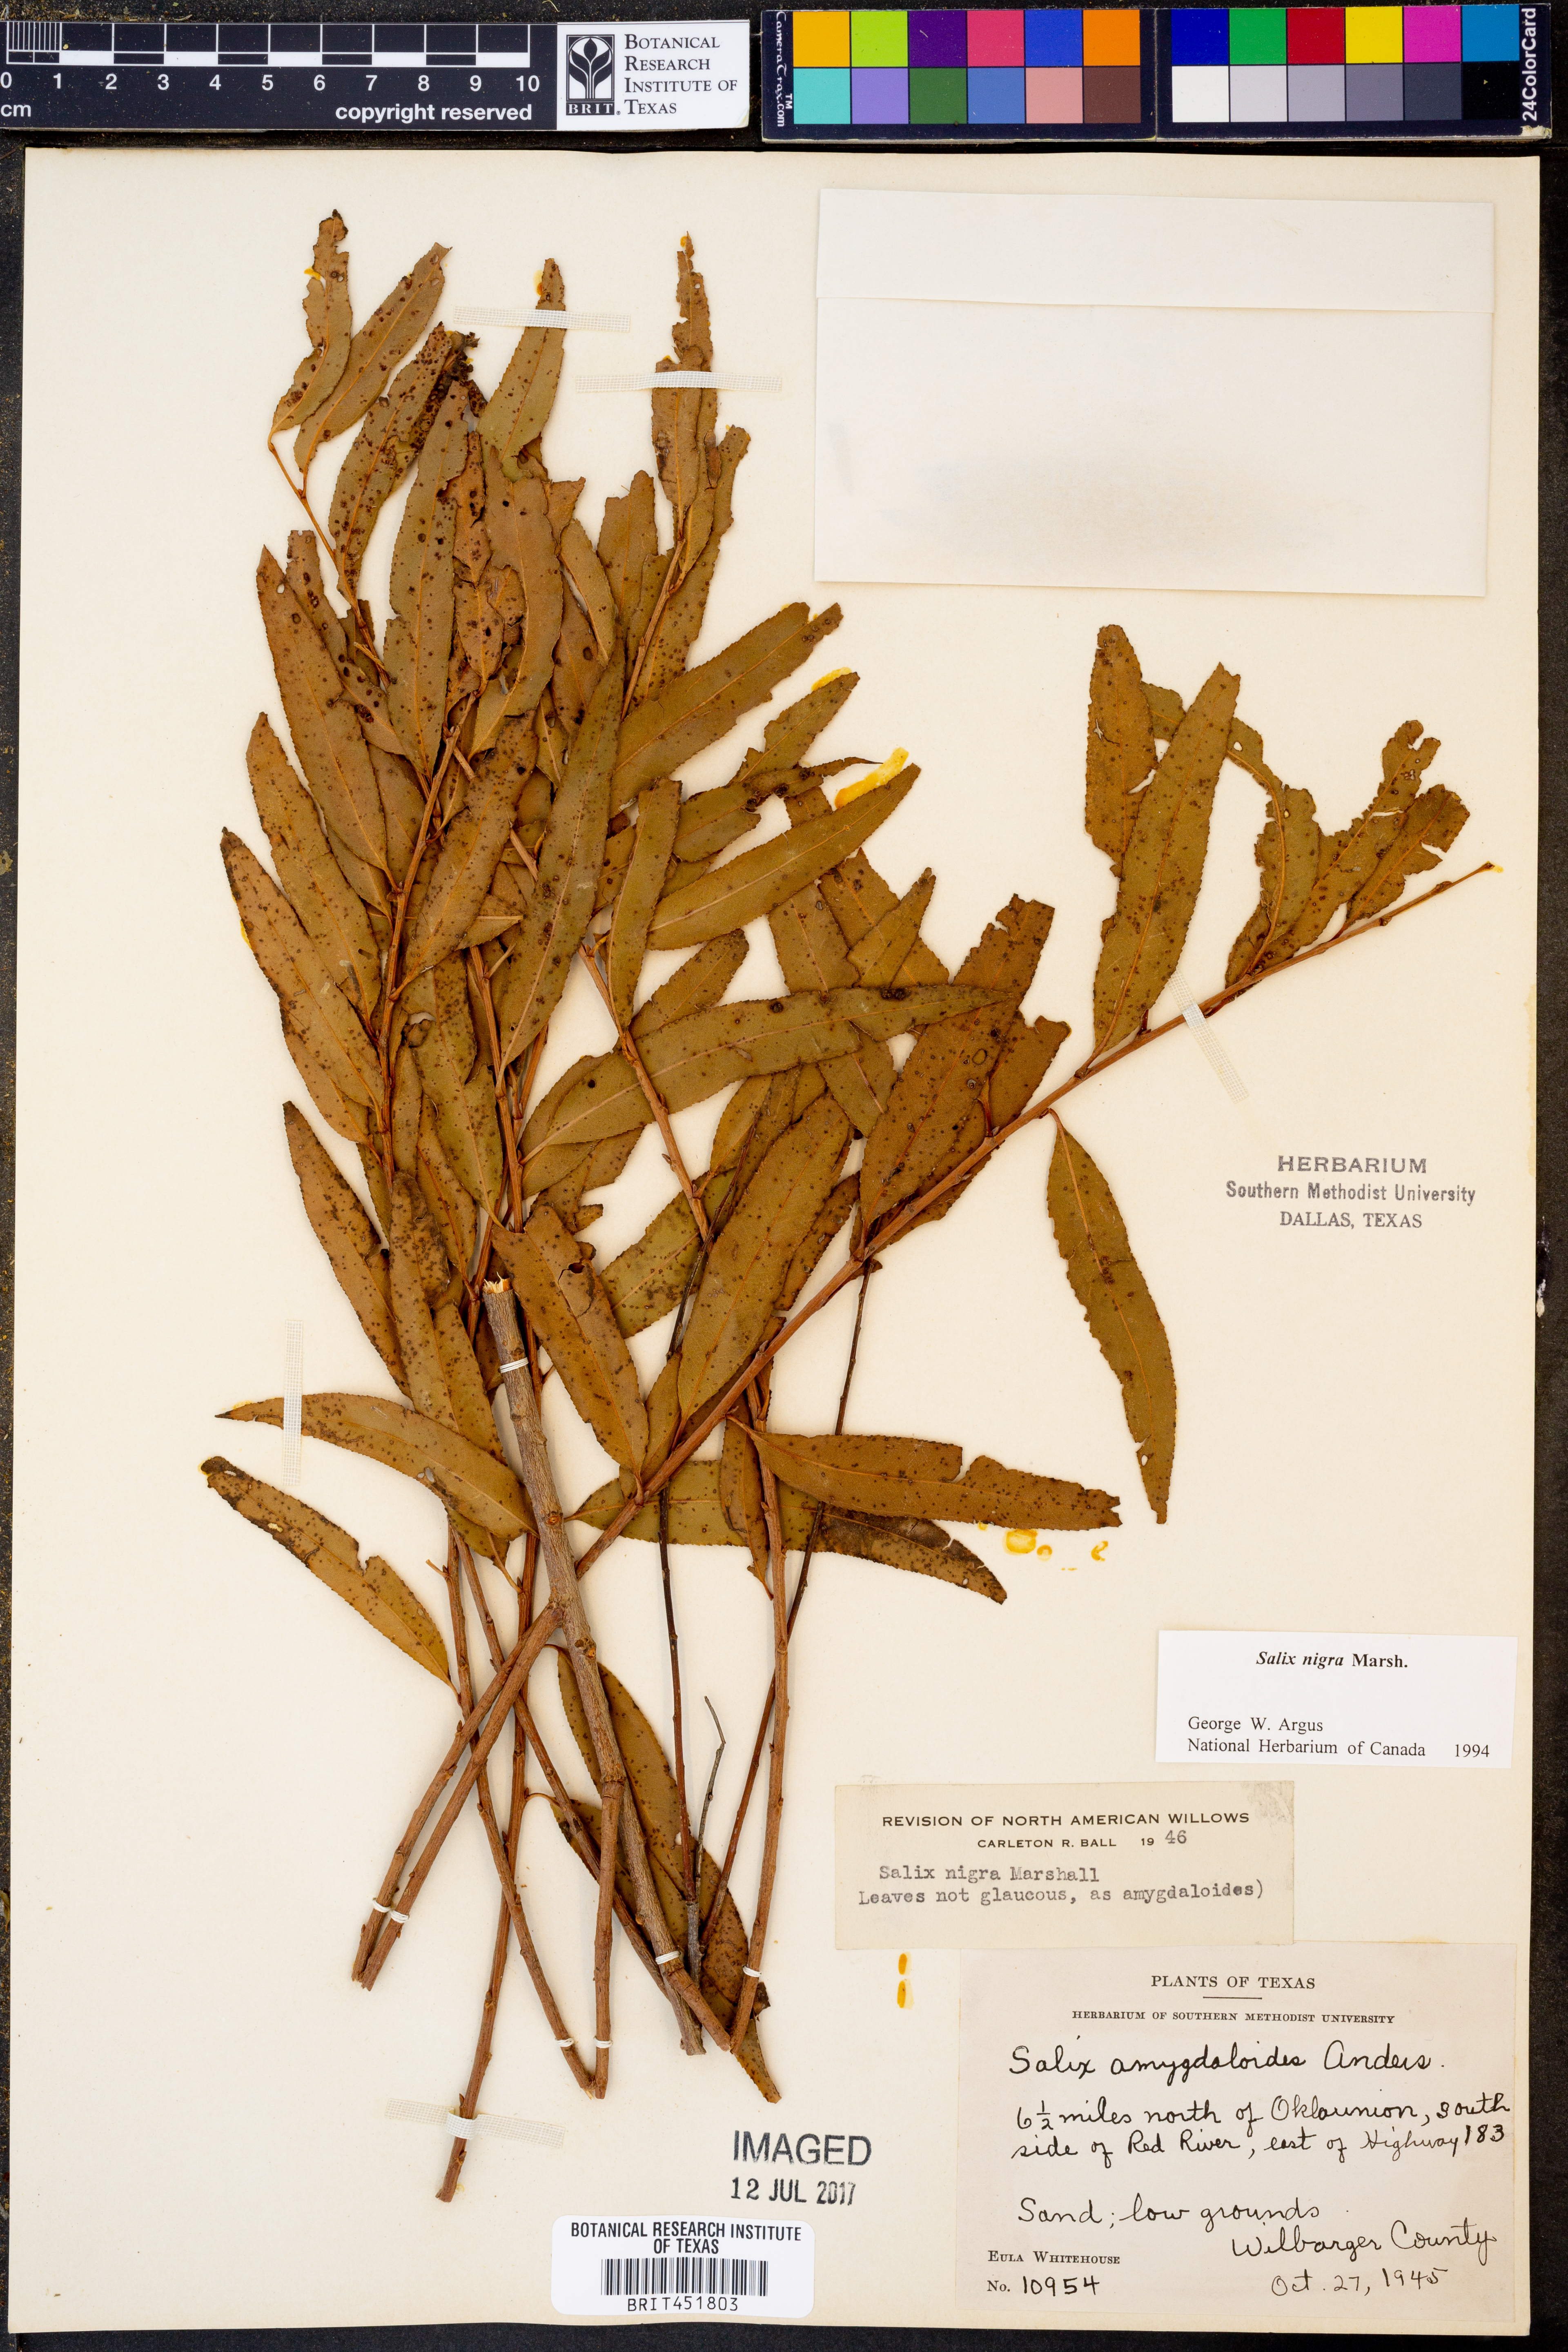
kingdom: Plantae
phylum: Tracheophyta
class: Magnoliopsida
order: Malpighiales
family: Salicaceae
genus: Salix
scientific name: Salix nigra
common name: Black willow
